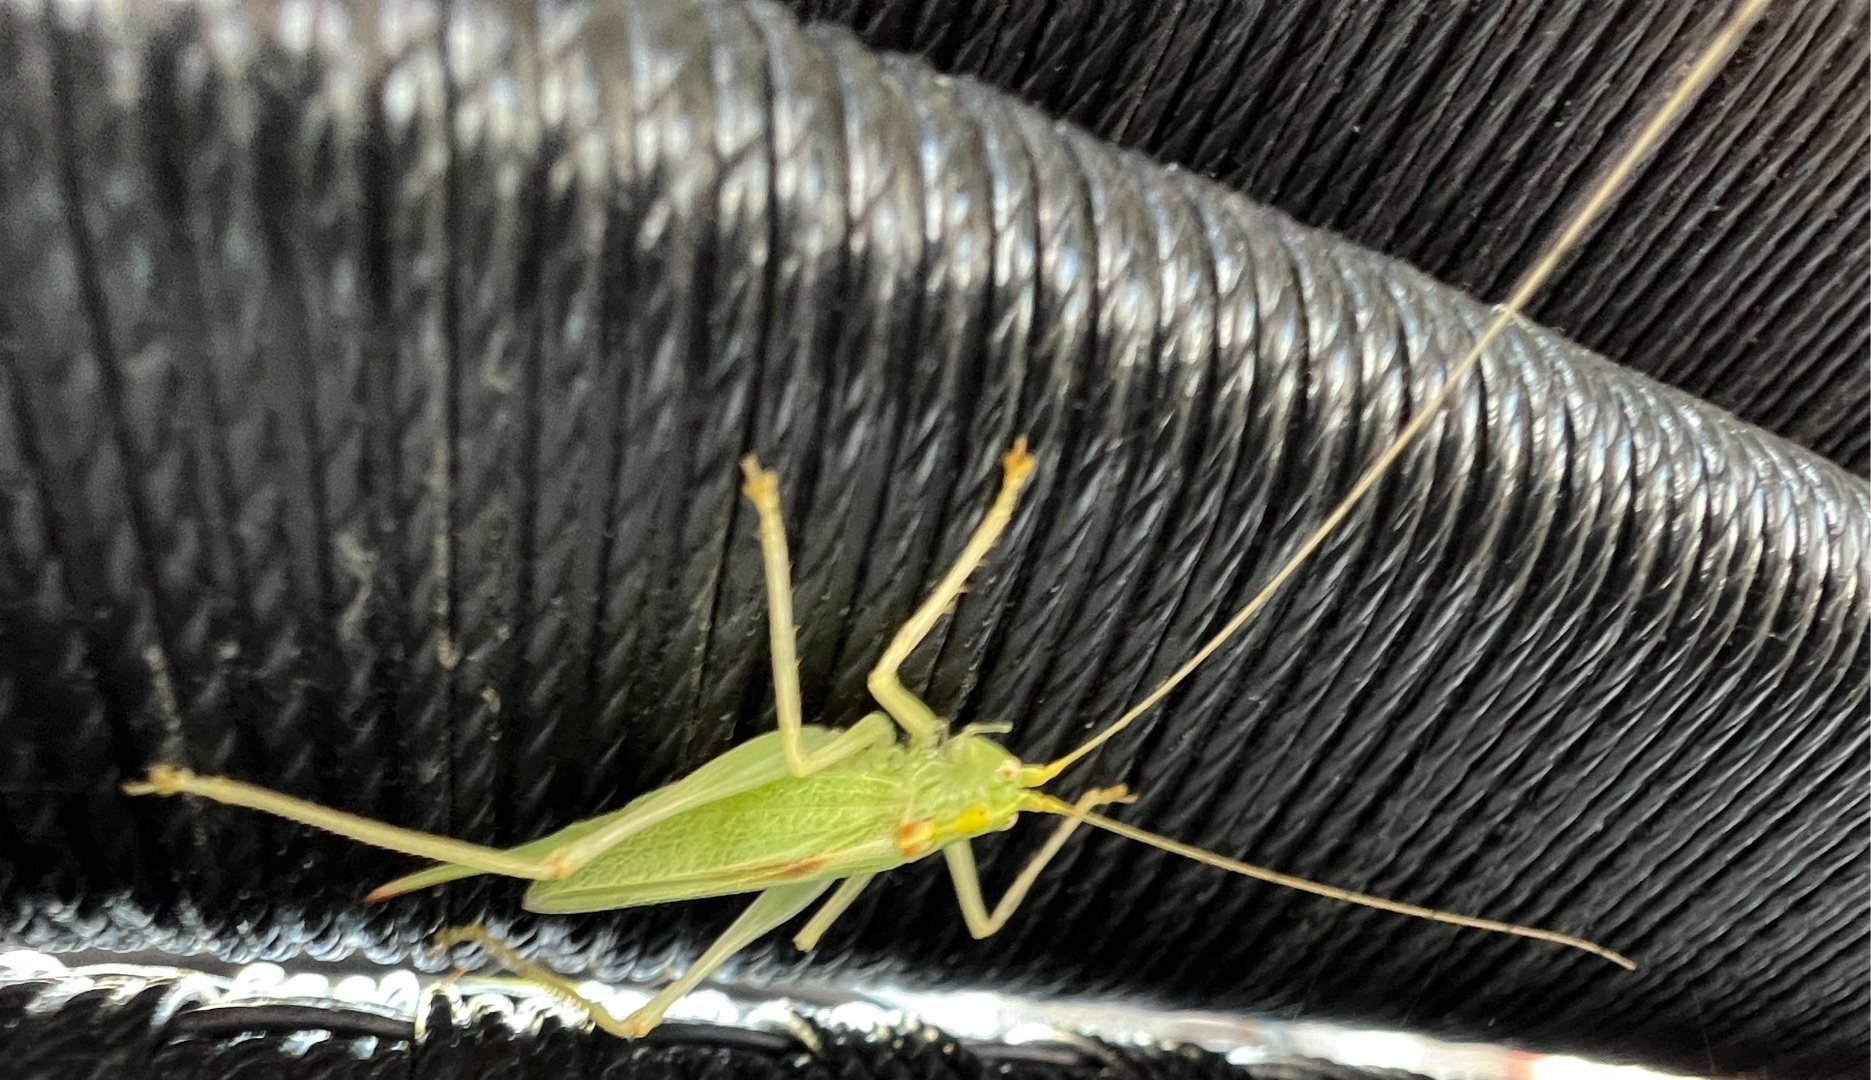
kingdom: Animalia
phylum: Arthropoda
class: Insecta
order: Orthoptera
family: Tettigoniidae
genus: Meconema
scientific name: Meconema thalassinum
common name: Egegræshoppe
